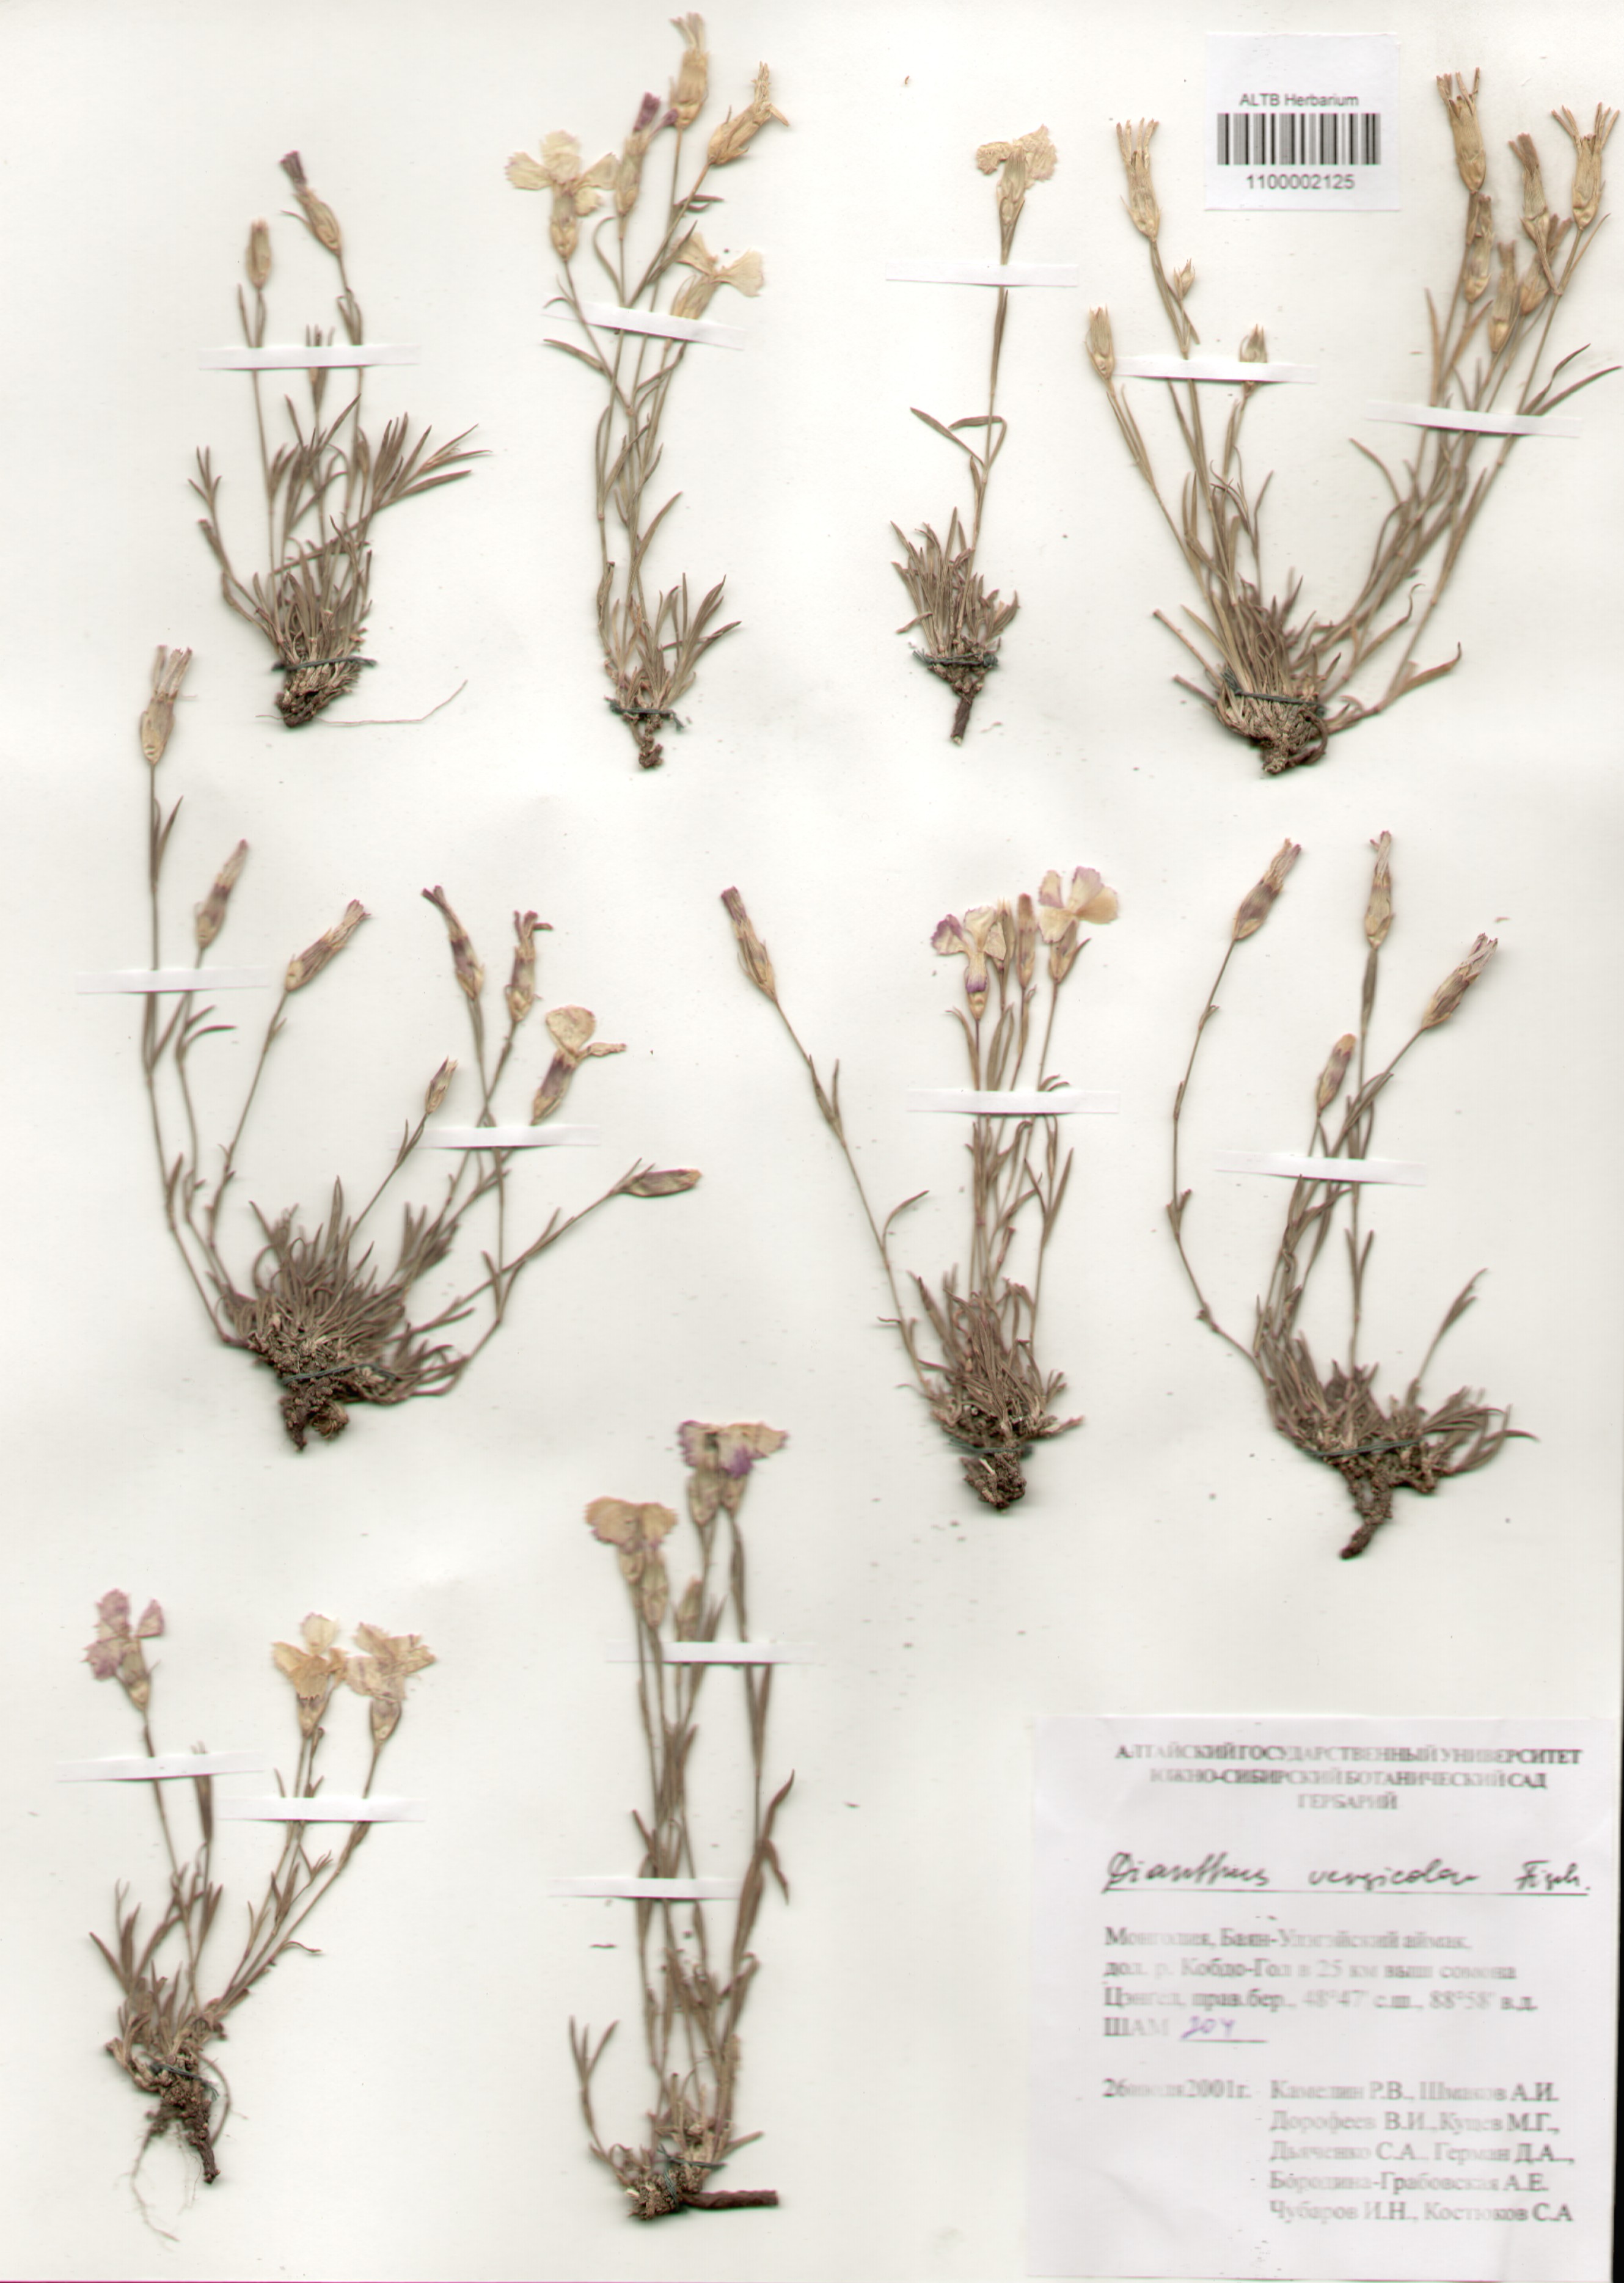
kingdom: Plantae
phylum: Tracheophyta
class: Magnoliopsida
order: Caryophyllales
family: Caryophyllaceae
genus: Dianthus
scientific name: Dianthus chinensis
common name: Rainbow pink
